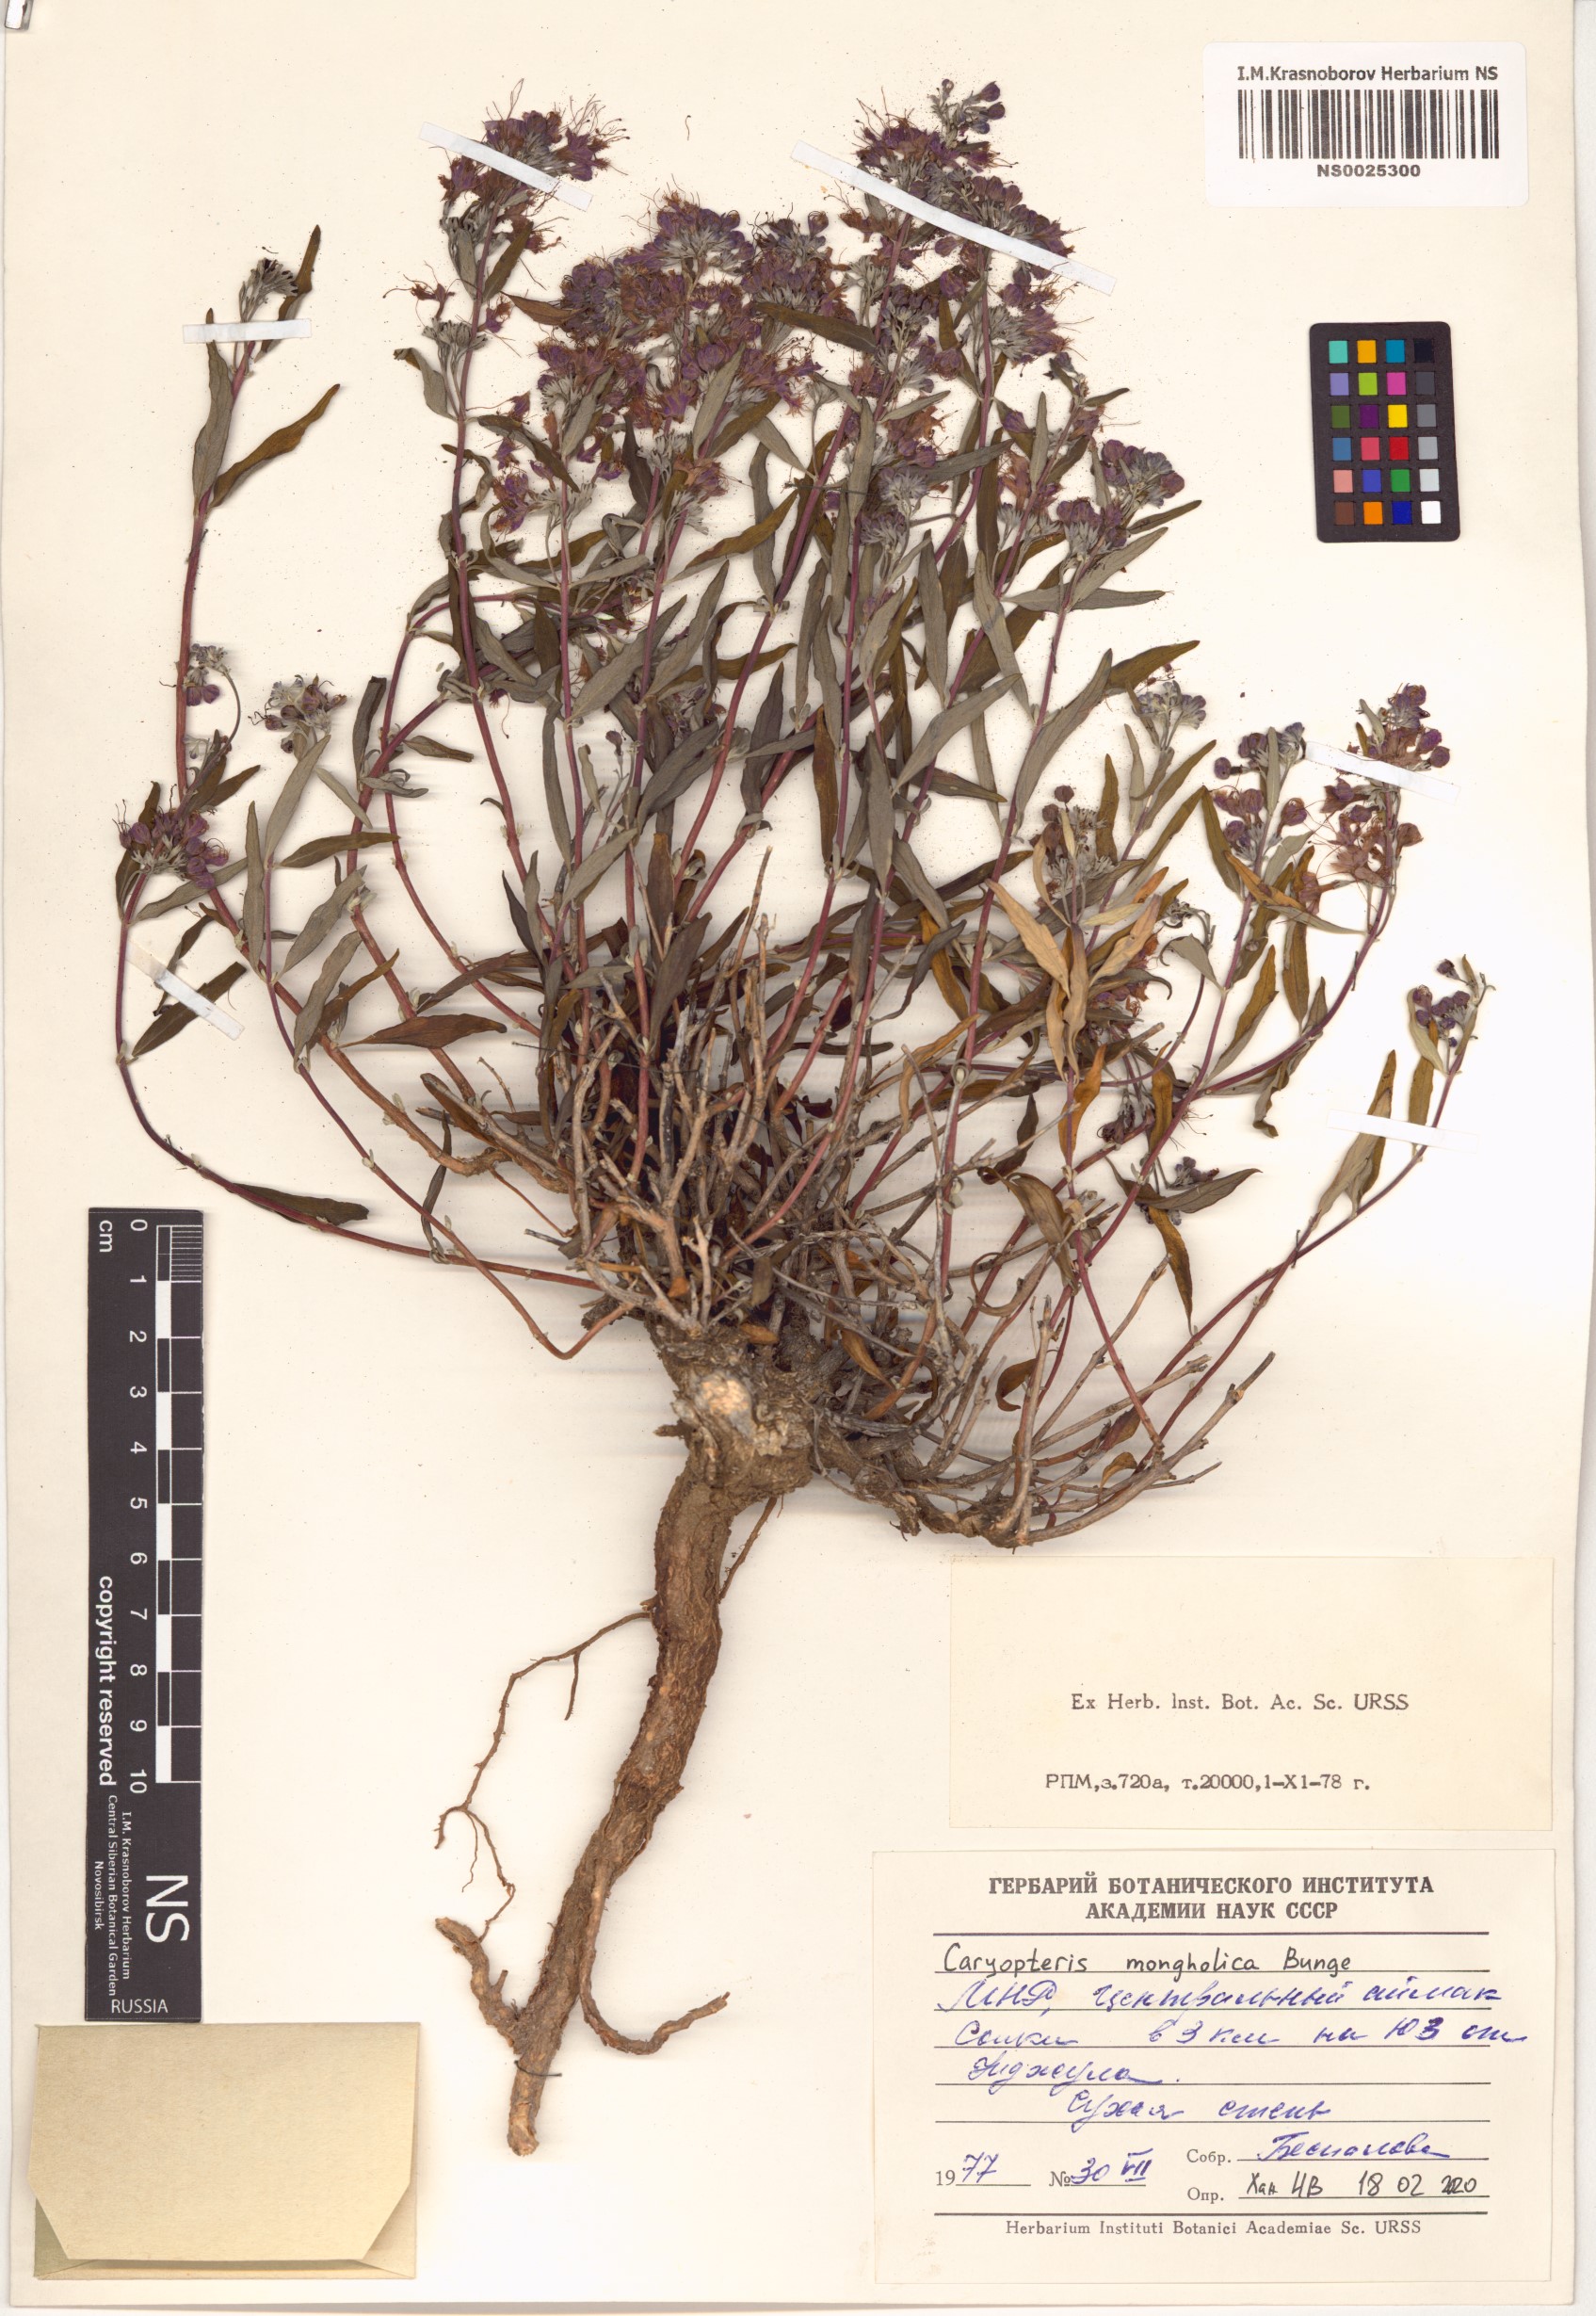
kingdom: Plantae
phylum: Tracheophyta
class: Magnoliopsida
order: Lamiales
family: Lamiaceae
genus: Caryopteris
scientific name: Caryopteris mongholica
